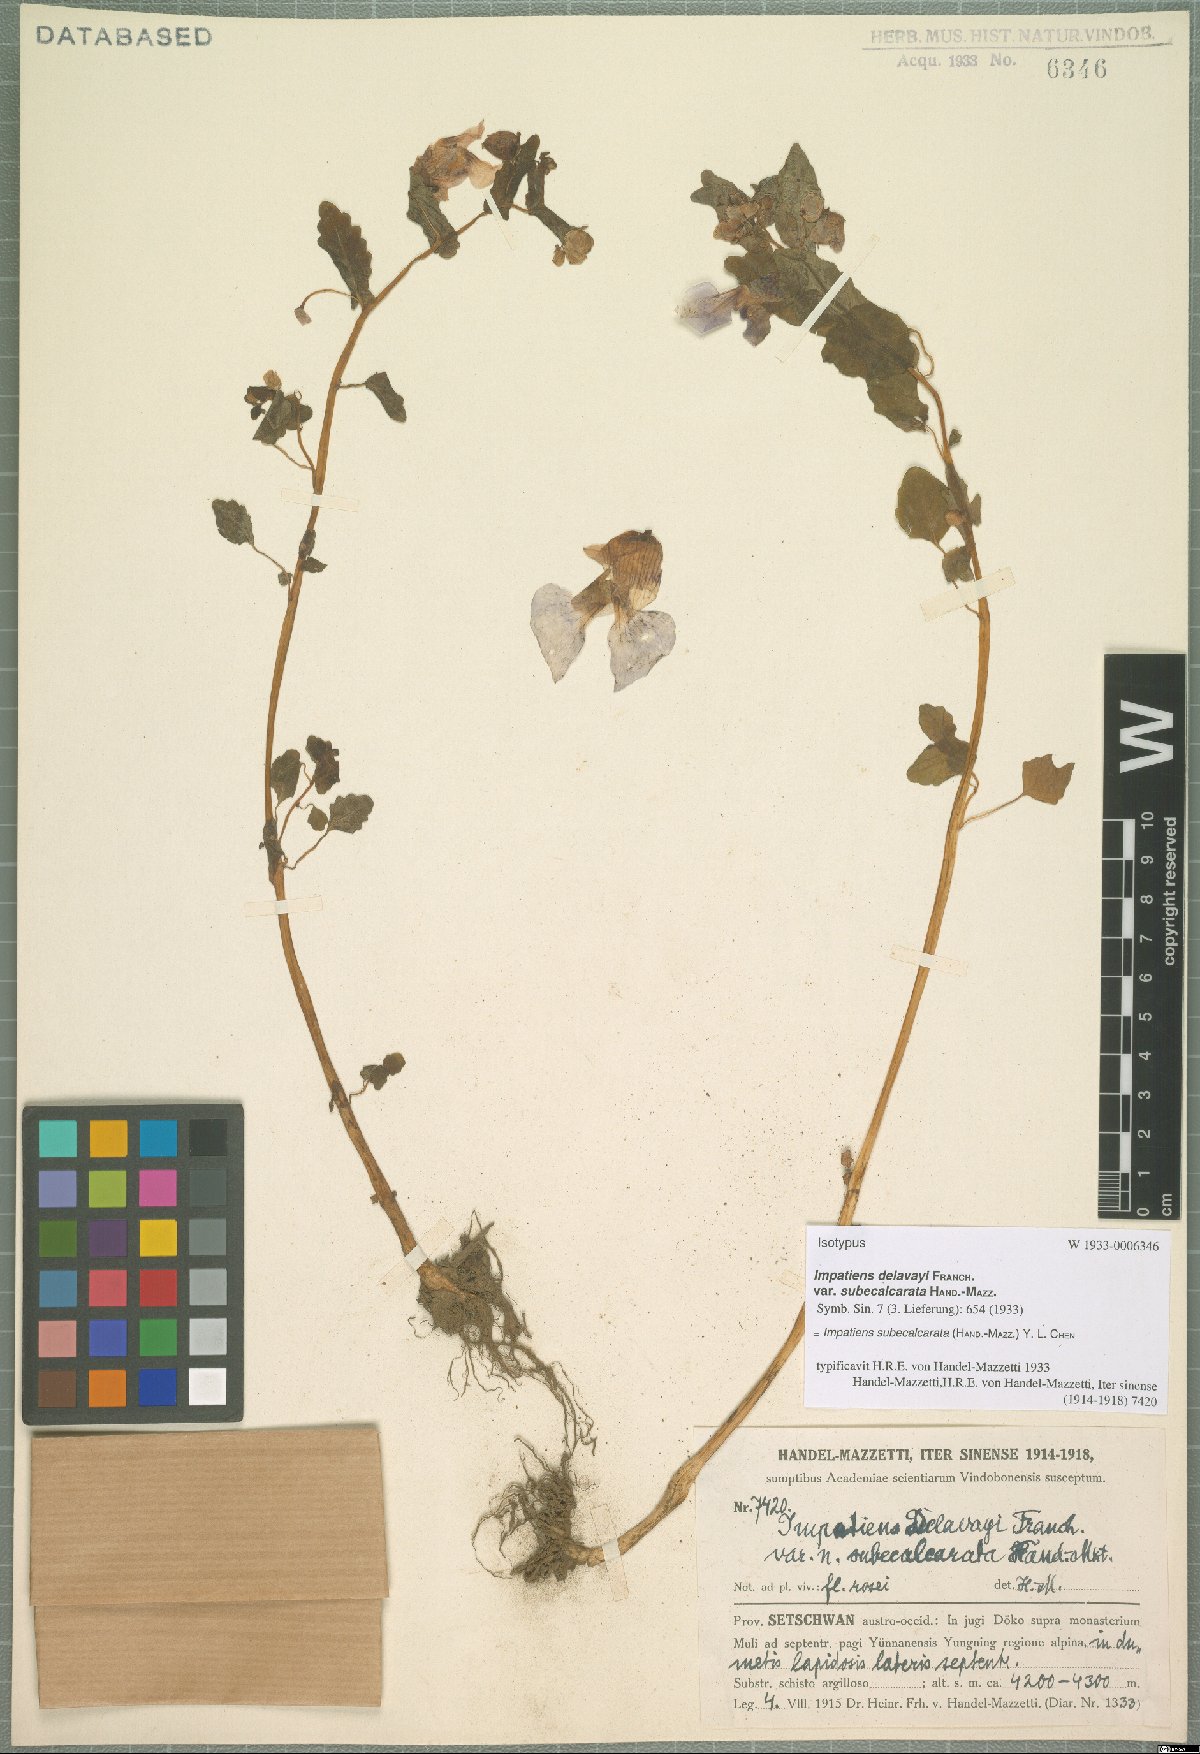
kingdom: Plantae
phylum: Tracheophyta
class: Magnoliopsida
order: Ericales
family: Balsaminaceae
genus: Impatiens
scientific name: Impatiens subecalcarata
